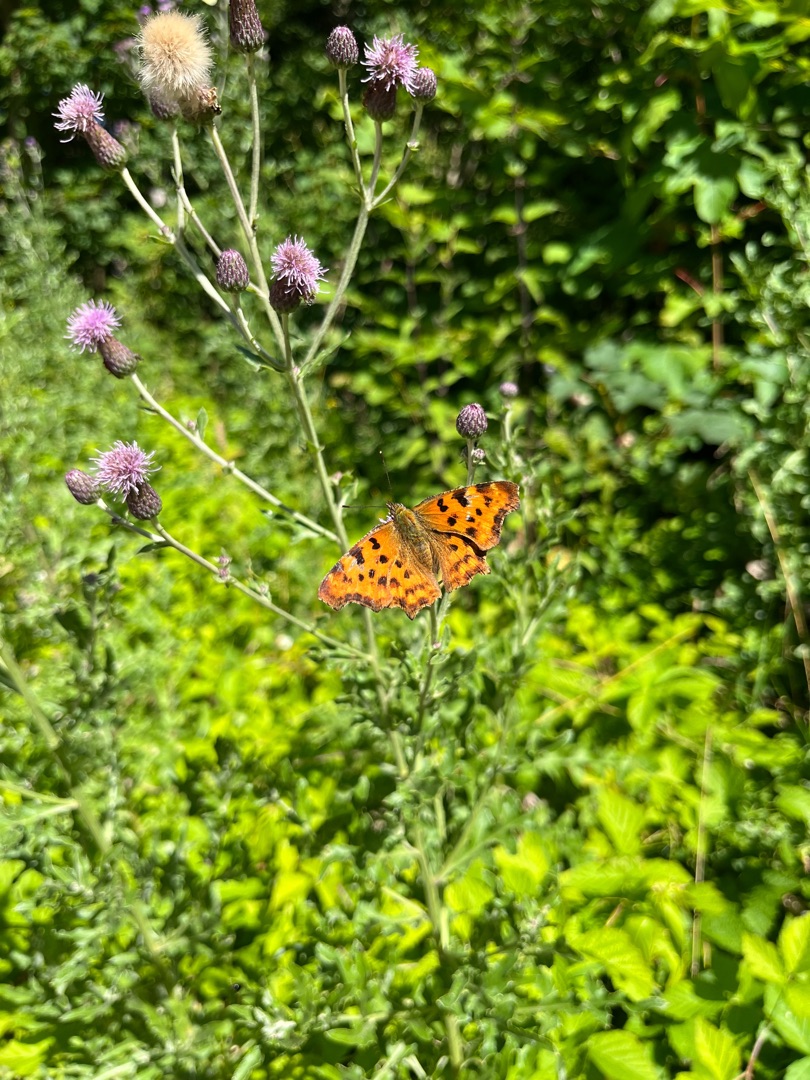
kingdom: Animalia
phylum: Arthropoda
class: Insecta
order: Lepidoptera
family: Nymphalidae
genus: Polygonia
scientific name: Polygonia c-album
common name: Det hvide C
